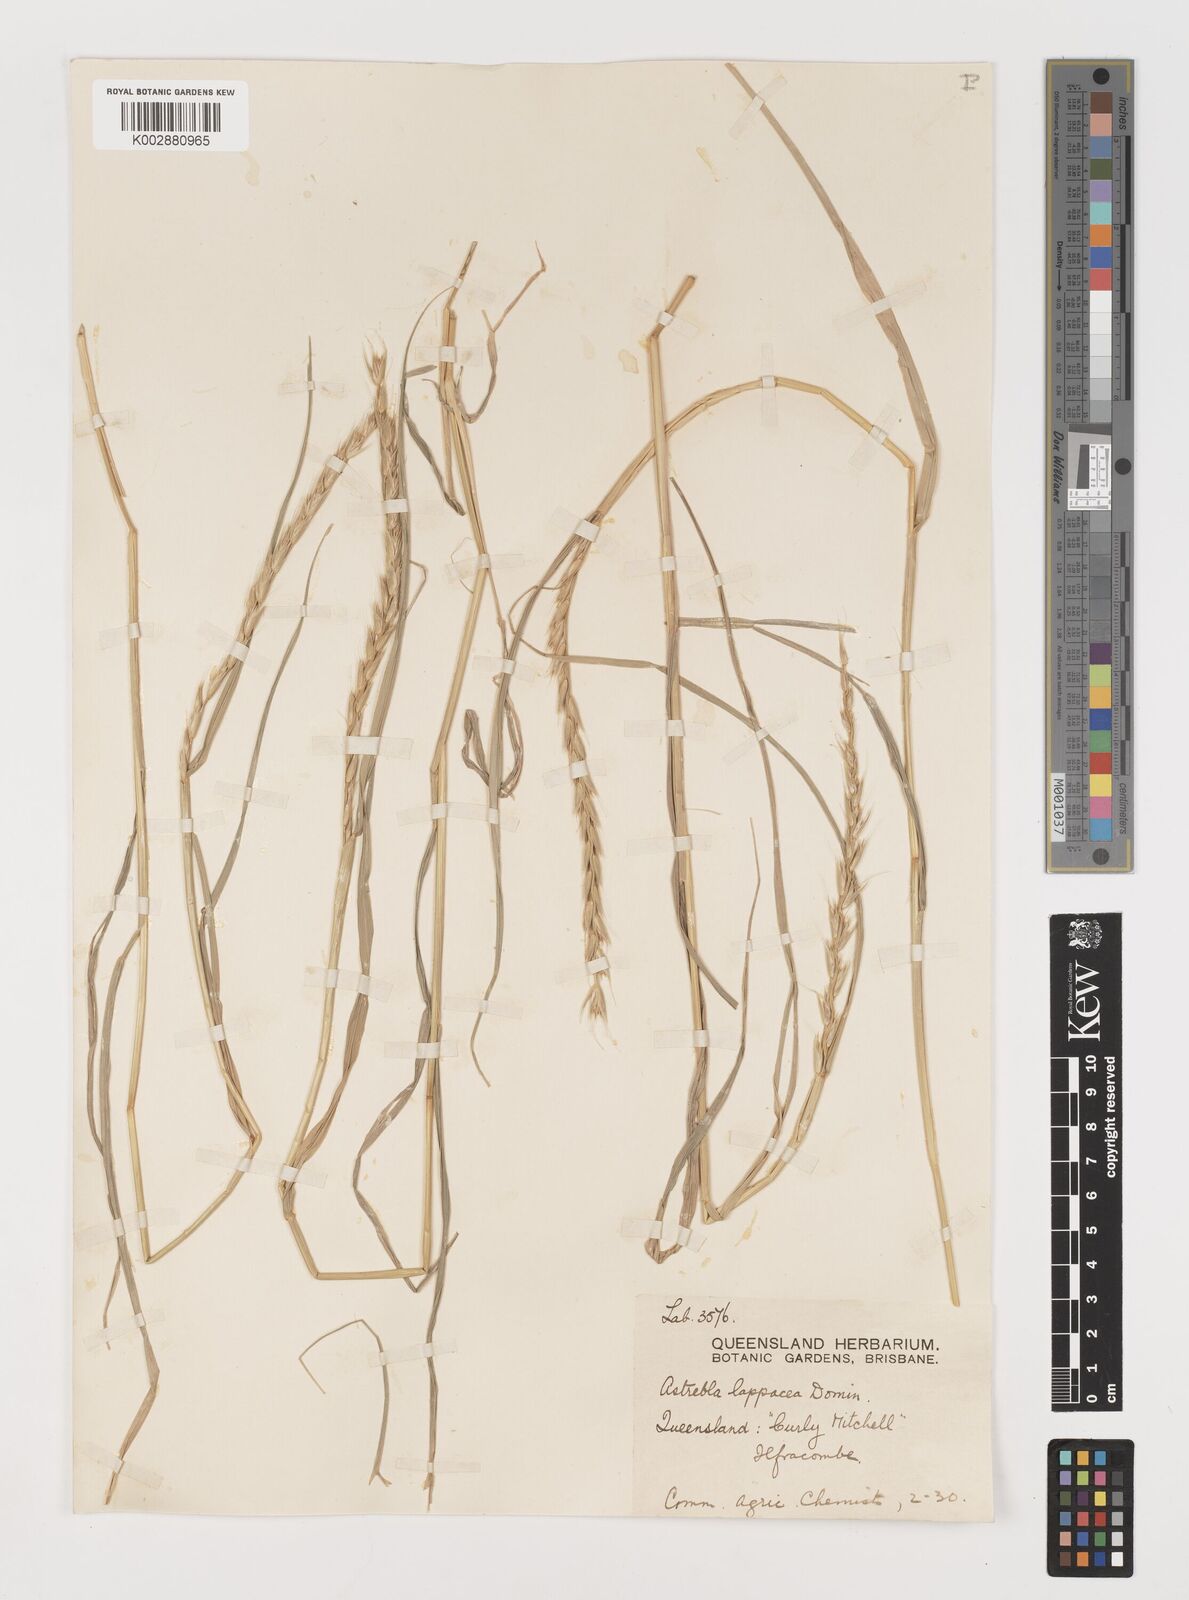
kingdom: Plantae
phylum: Tracheophyta
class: Liliopsida
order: Poales
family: Poaceae
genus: Astrebla
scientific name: Astrebla lappacea
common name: Curly mitchell grass
